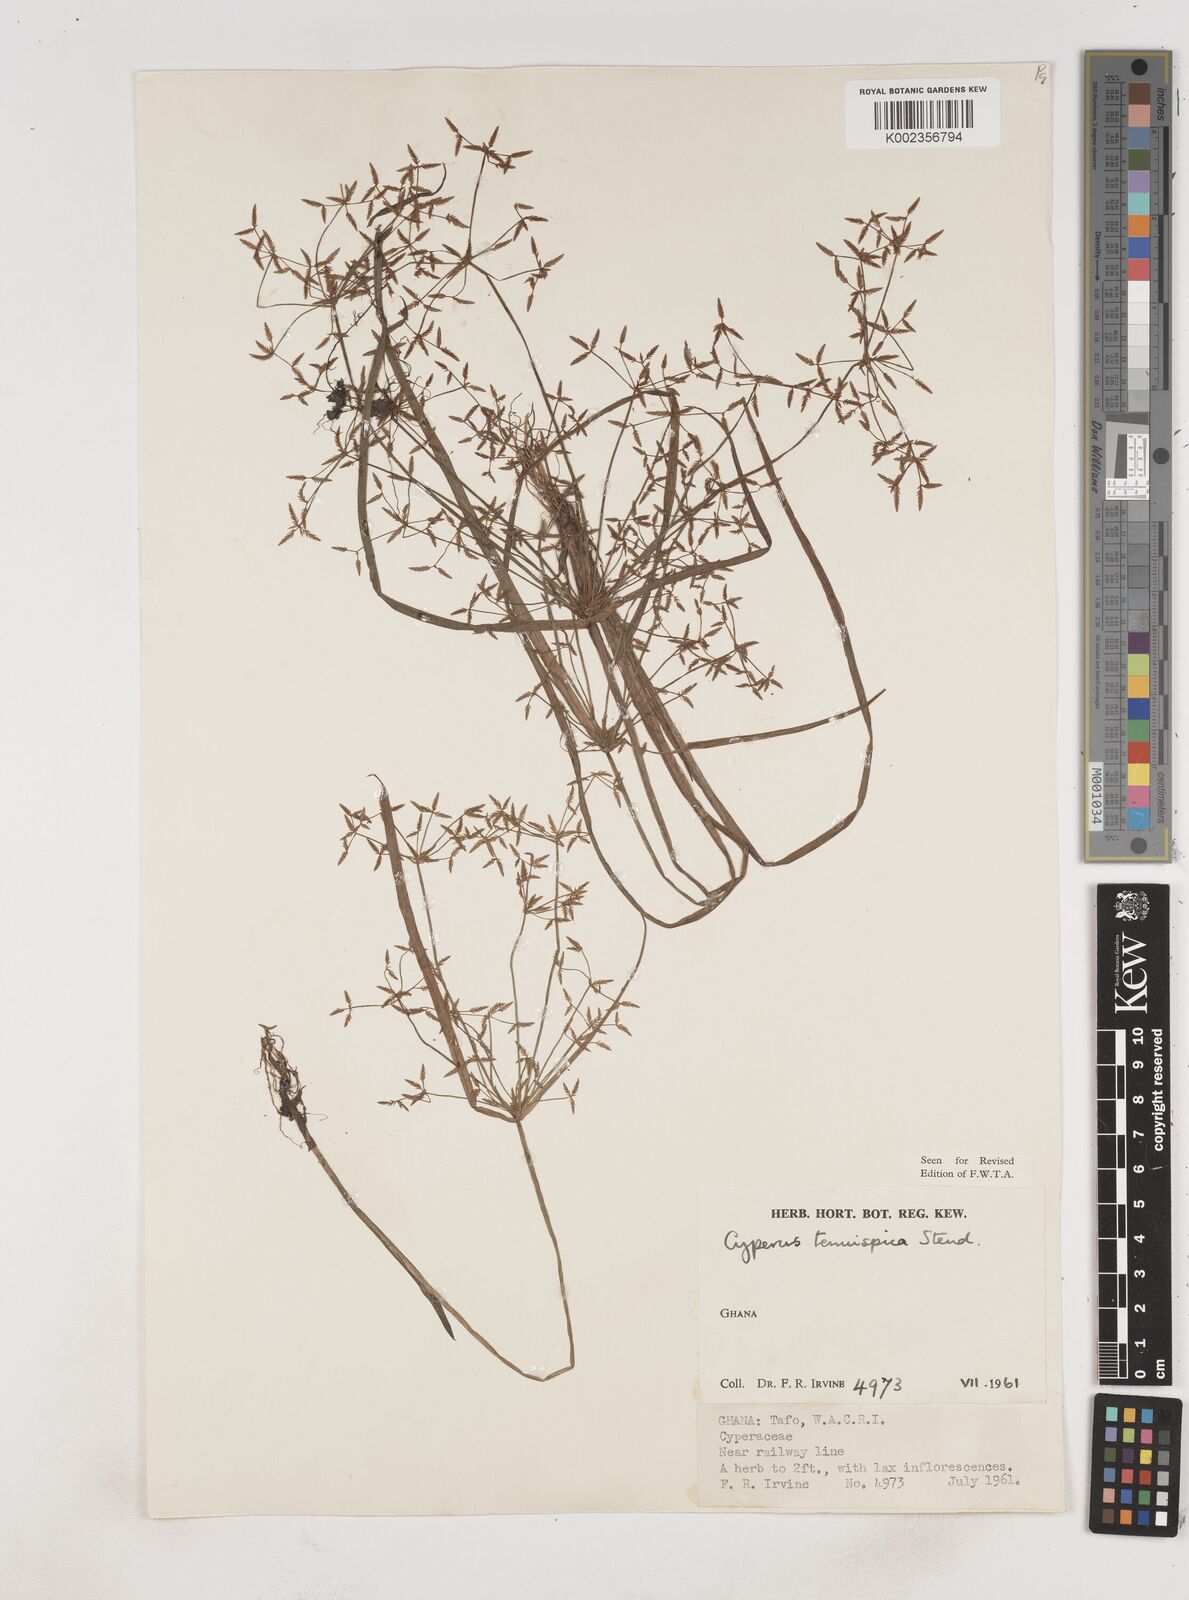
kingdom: Plantae
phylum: Tracheophyta
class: Liliopsida
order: Poales
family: Cyperaceae
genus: Cyperus
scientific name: Cyperus tenuispica
